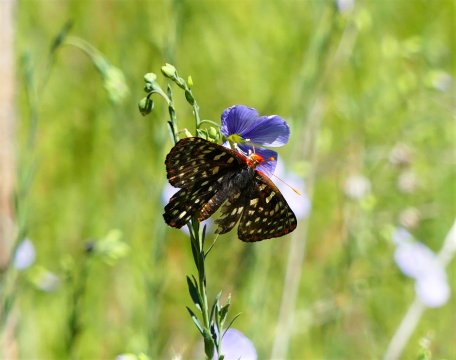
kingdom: Animalia
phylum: Arthropoda
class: Insecta
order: Lepidoptera
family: Nymphalidae
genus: Occidryas
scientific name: Occidryas colon
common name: Snowberry Checkerspot
